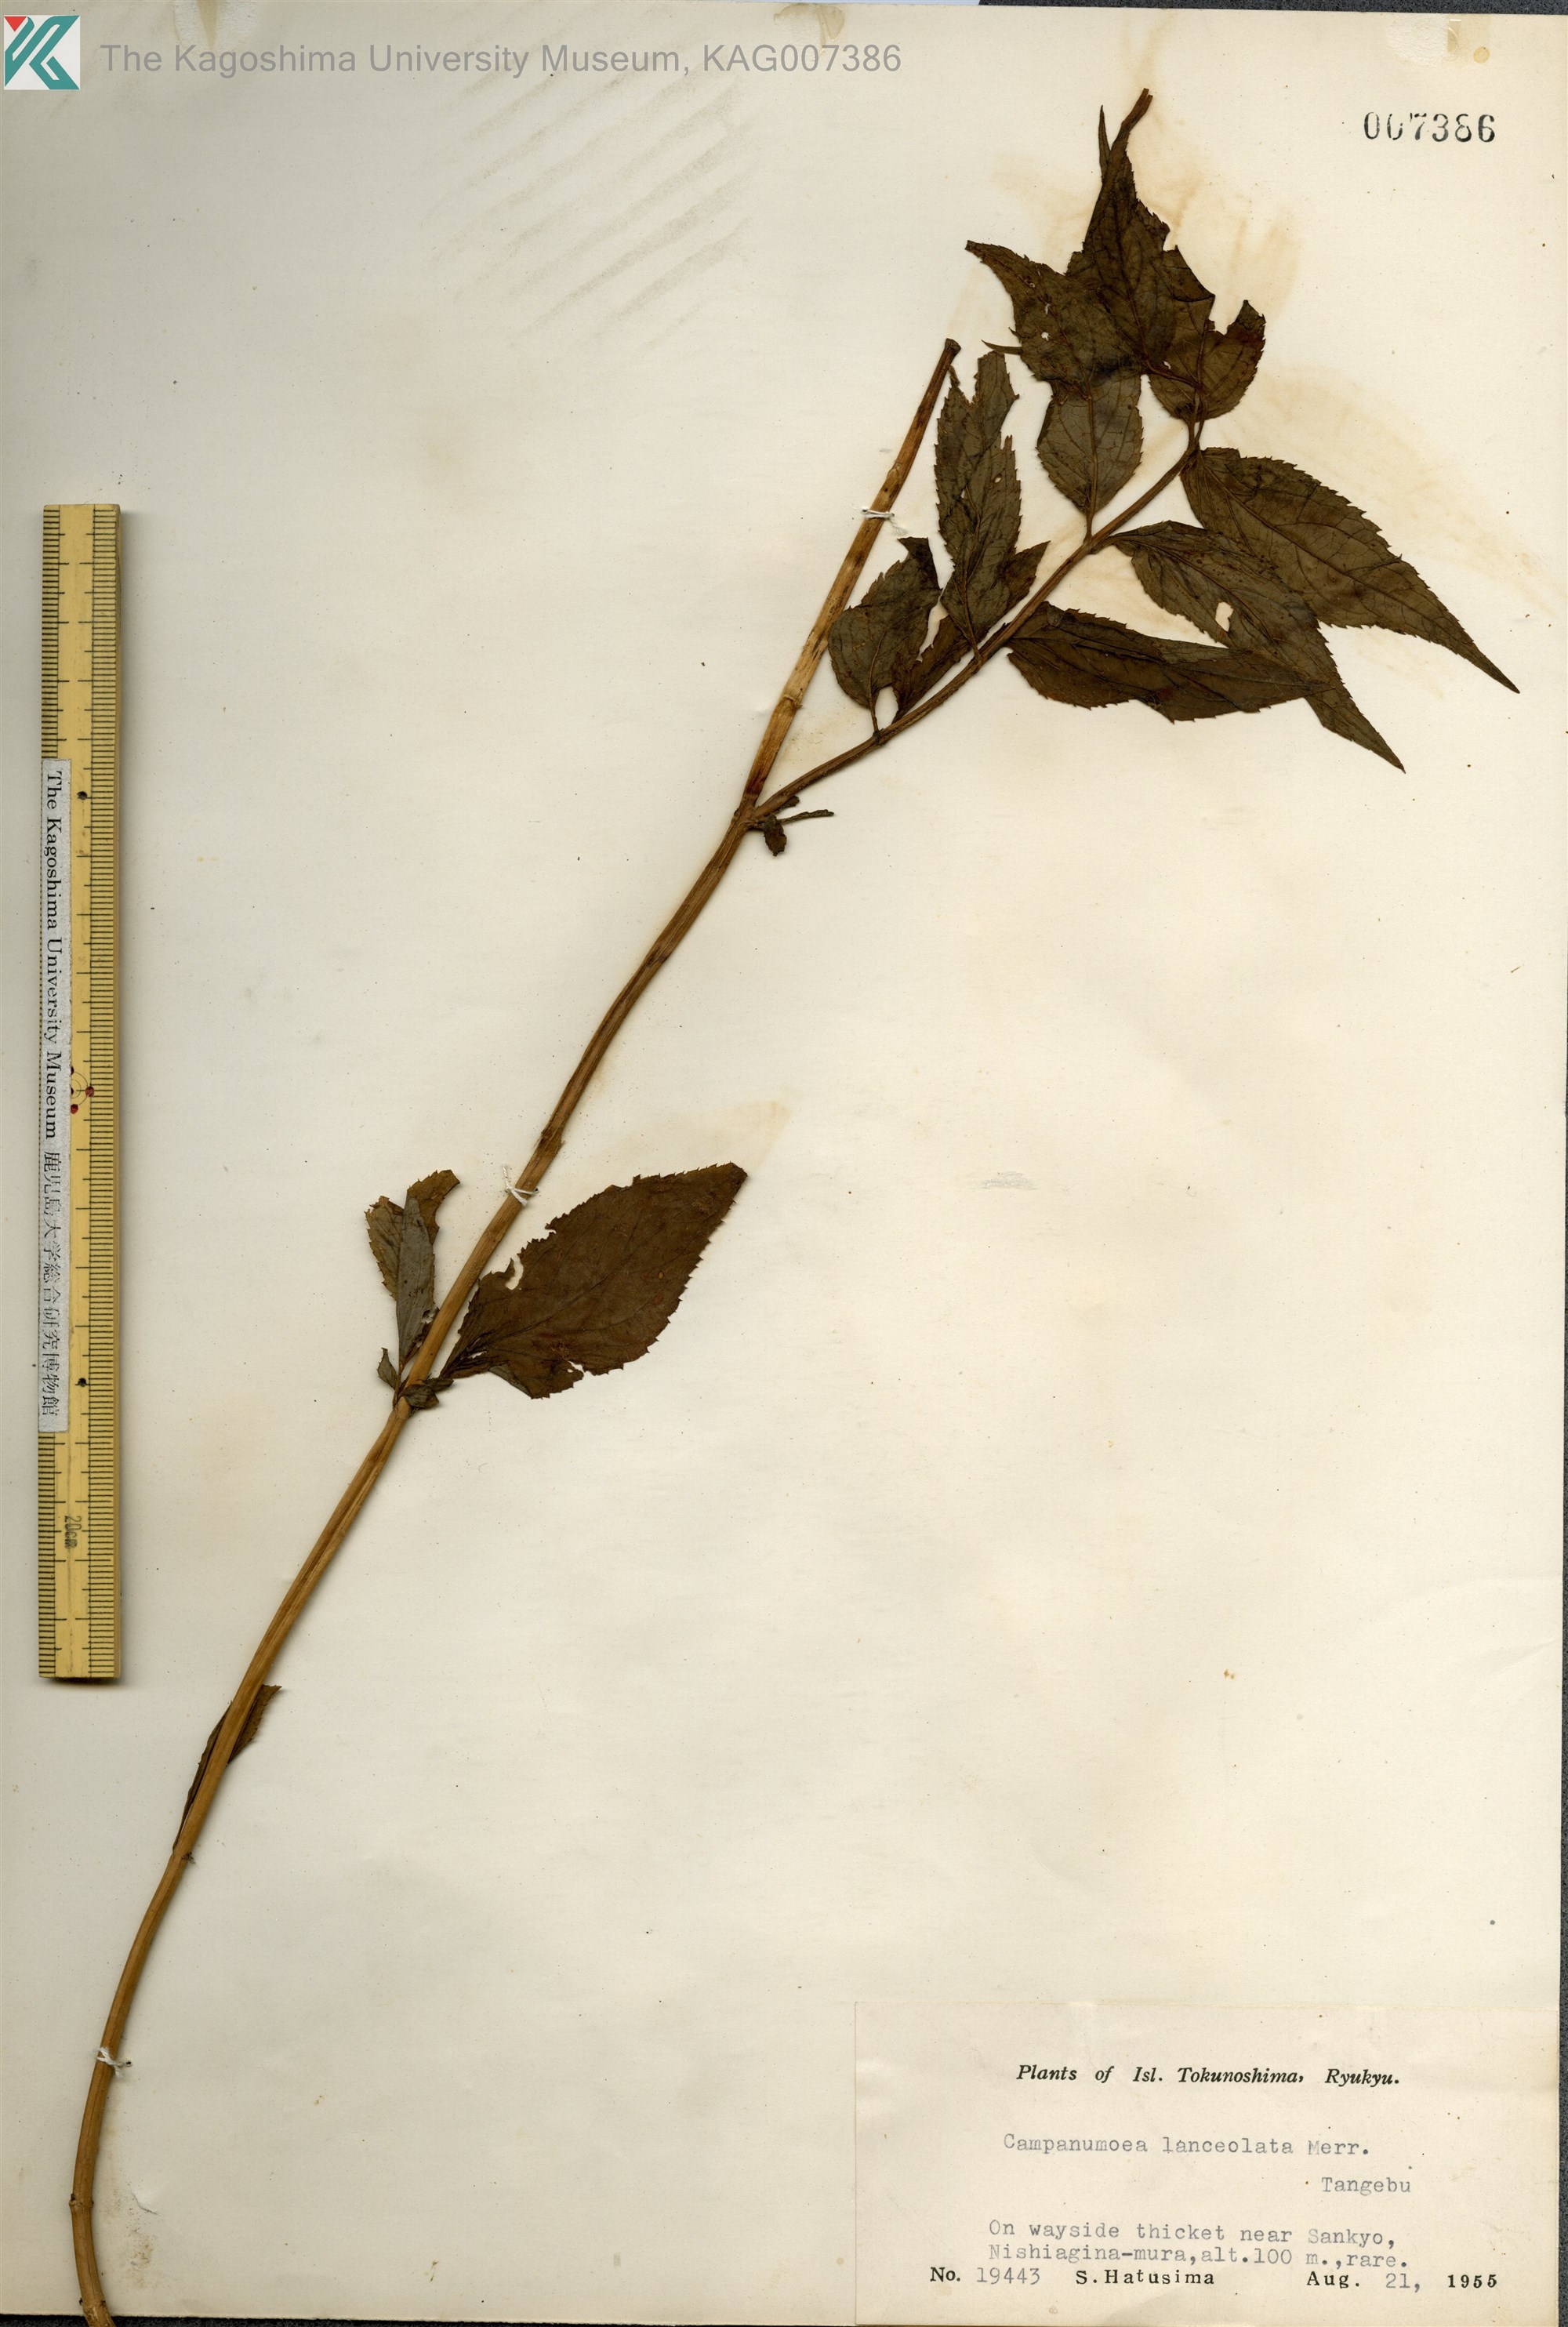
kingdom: Plantae
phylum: Tracheophyta
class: Magnoliopsida
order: Asterales
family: Campanulaceae
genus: Cyclocodon
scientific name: Cyclocodon lancifolius
